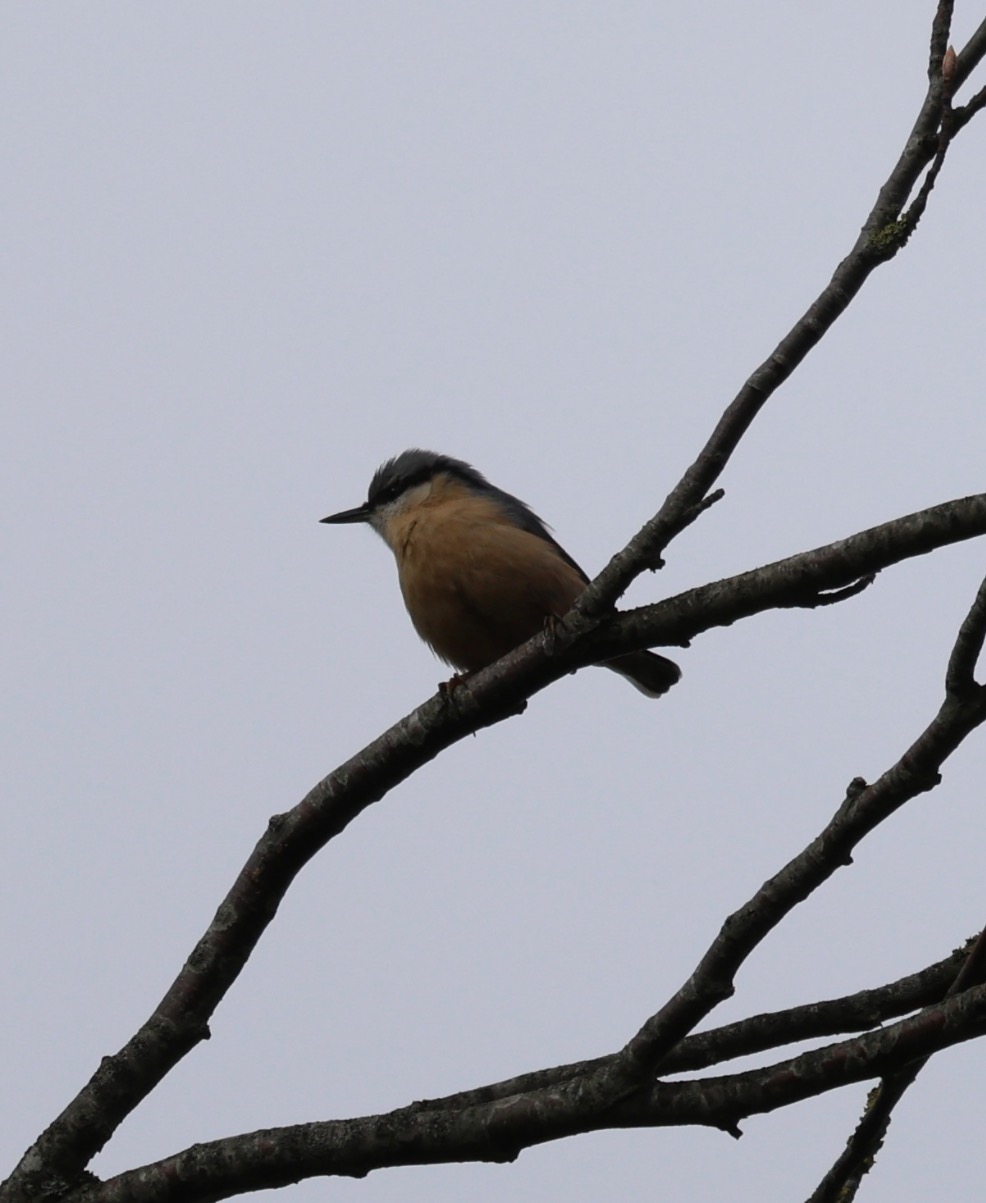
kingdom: Animalia
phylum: Chordata
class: Aves
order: Passeriformes
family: Sittidae
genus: Sitta
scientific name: Sitta europaea
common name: Spætmejse
